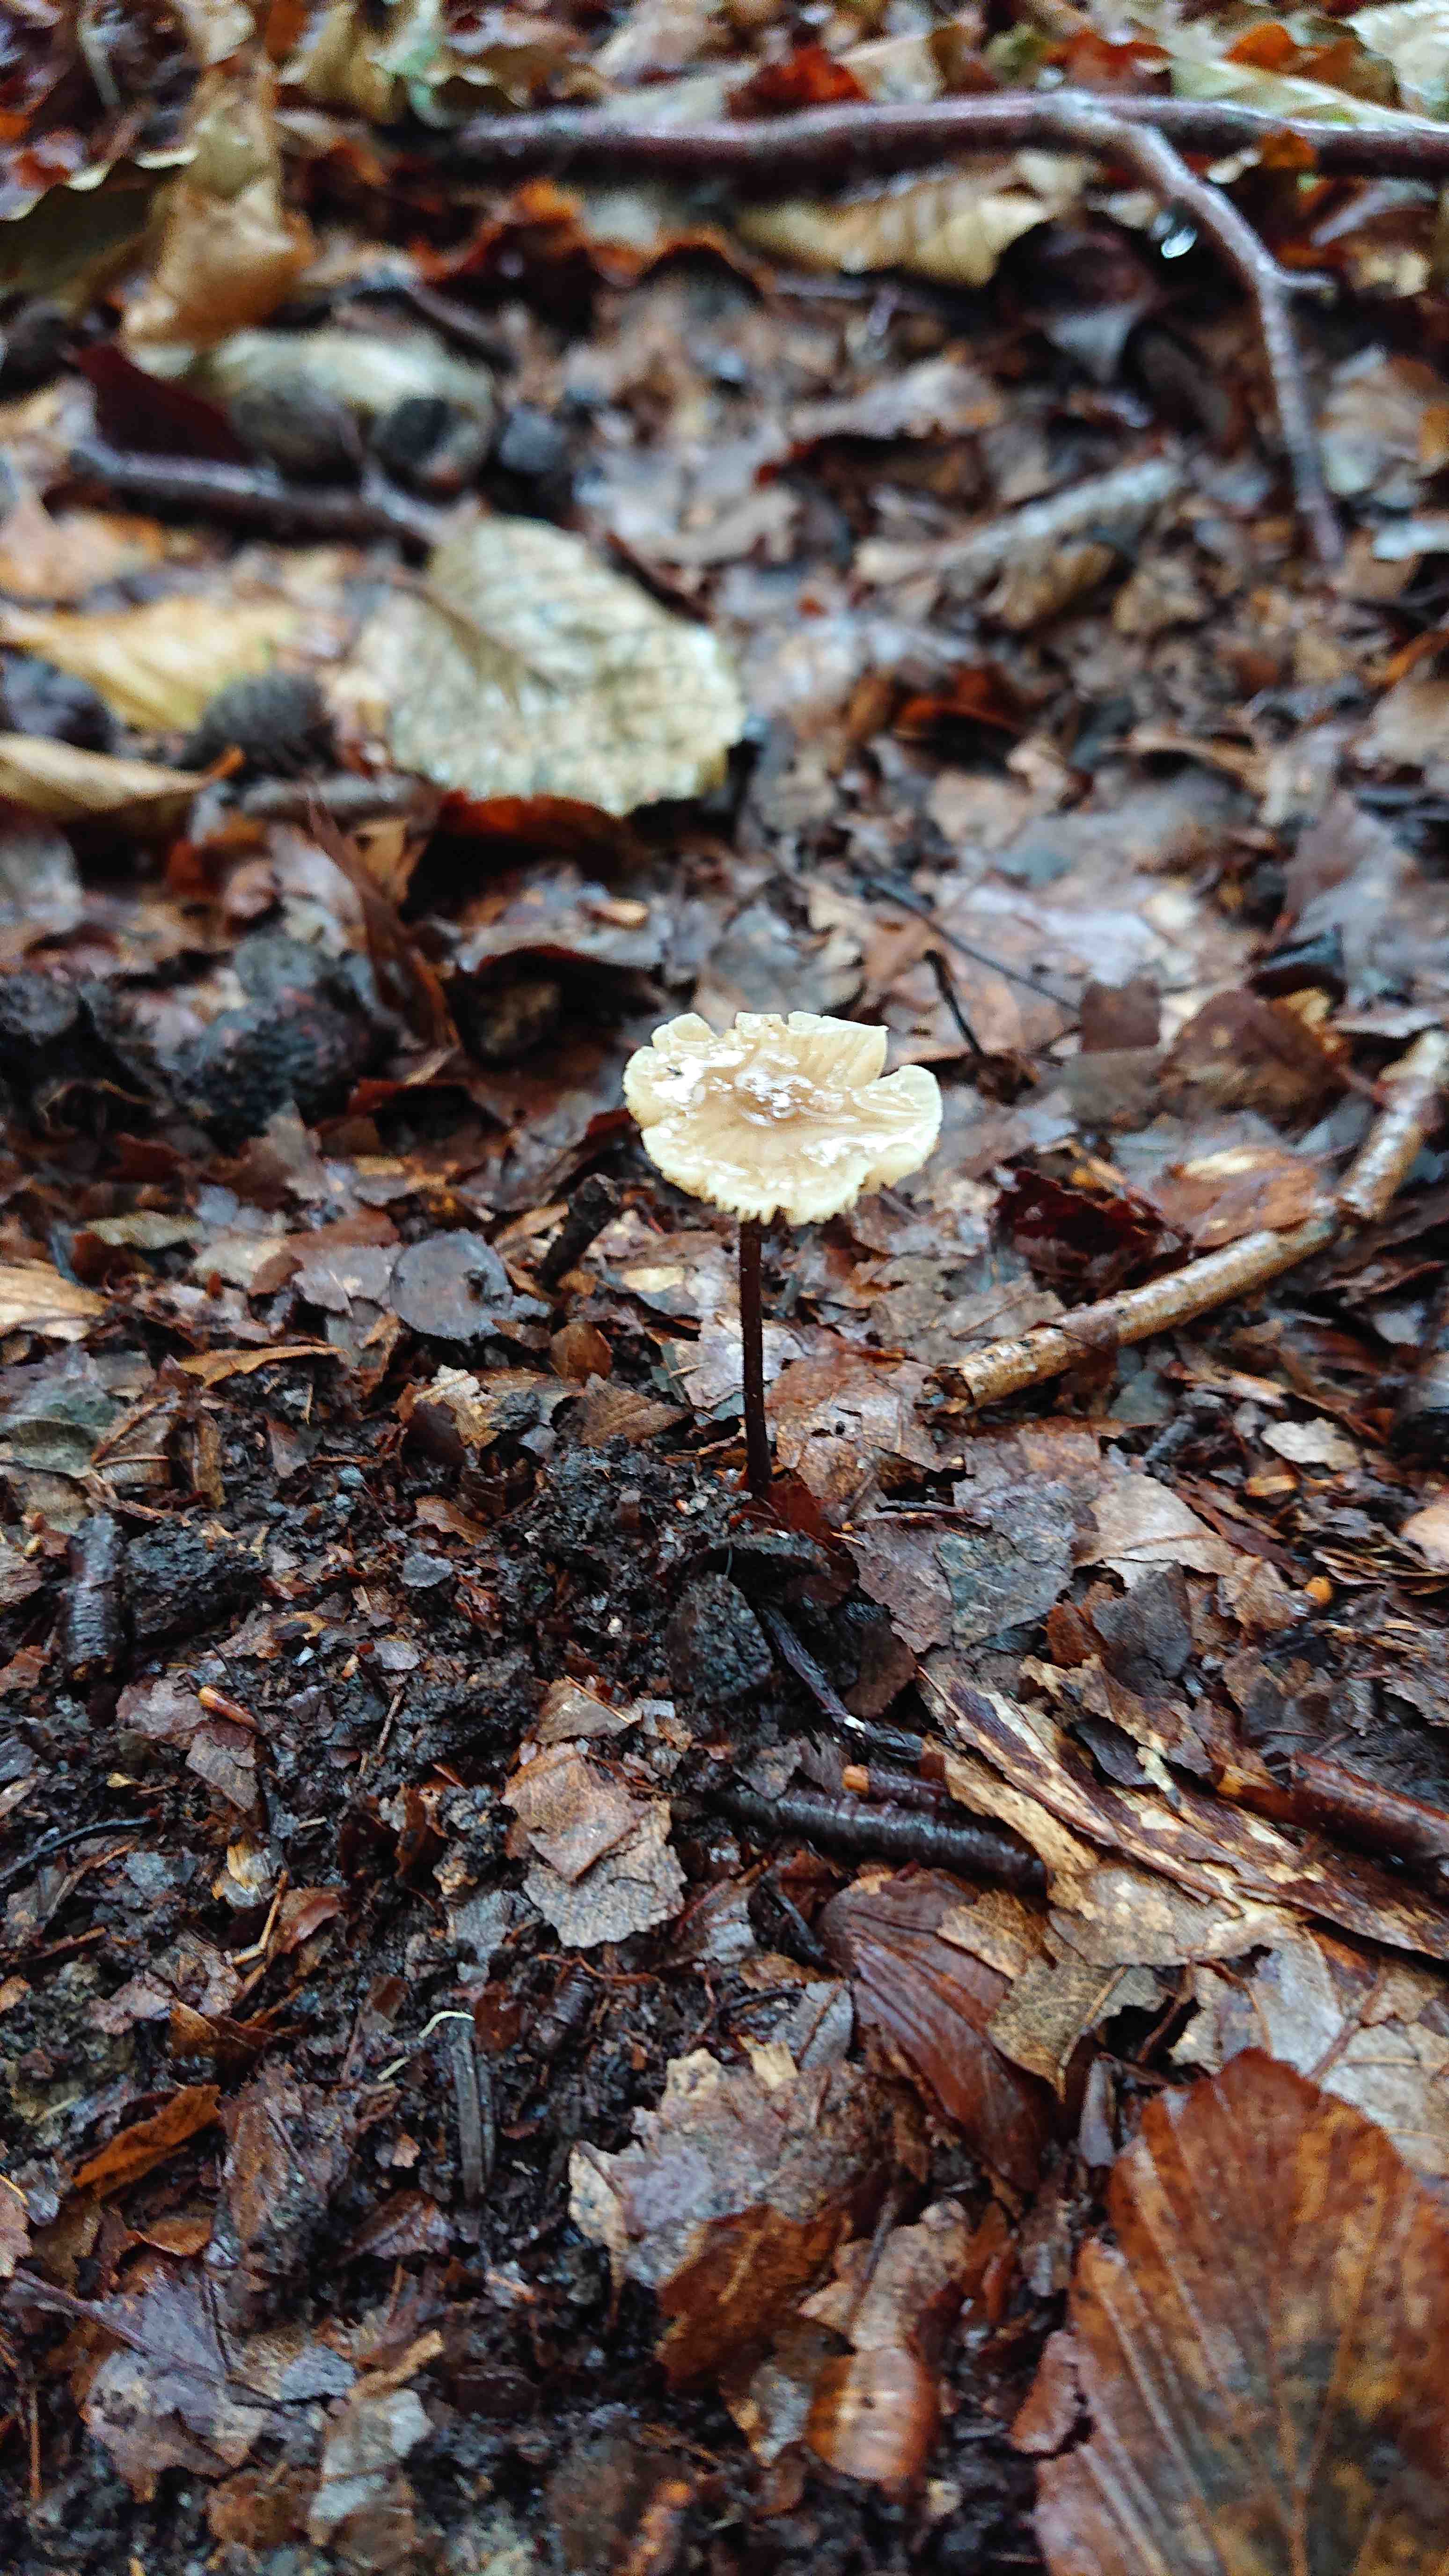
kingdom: Fungi
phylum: Basidiomycota
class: Agaricomycetes
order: Agaricales
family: Omphalotaceae
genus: Mycetinis
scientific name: Mycetinis alliaceus
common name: stor løghat
